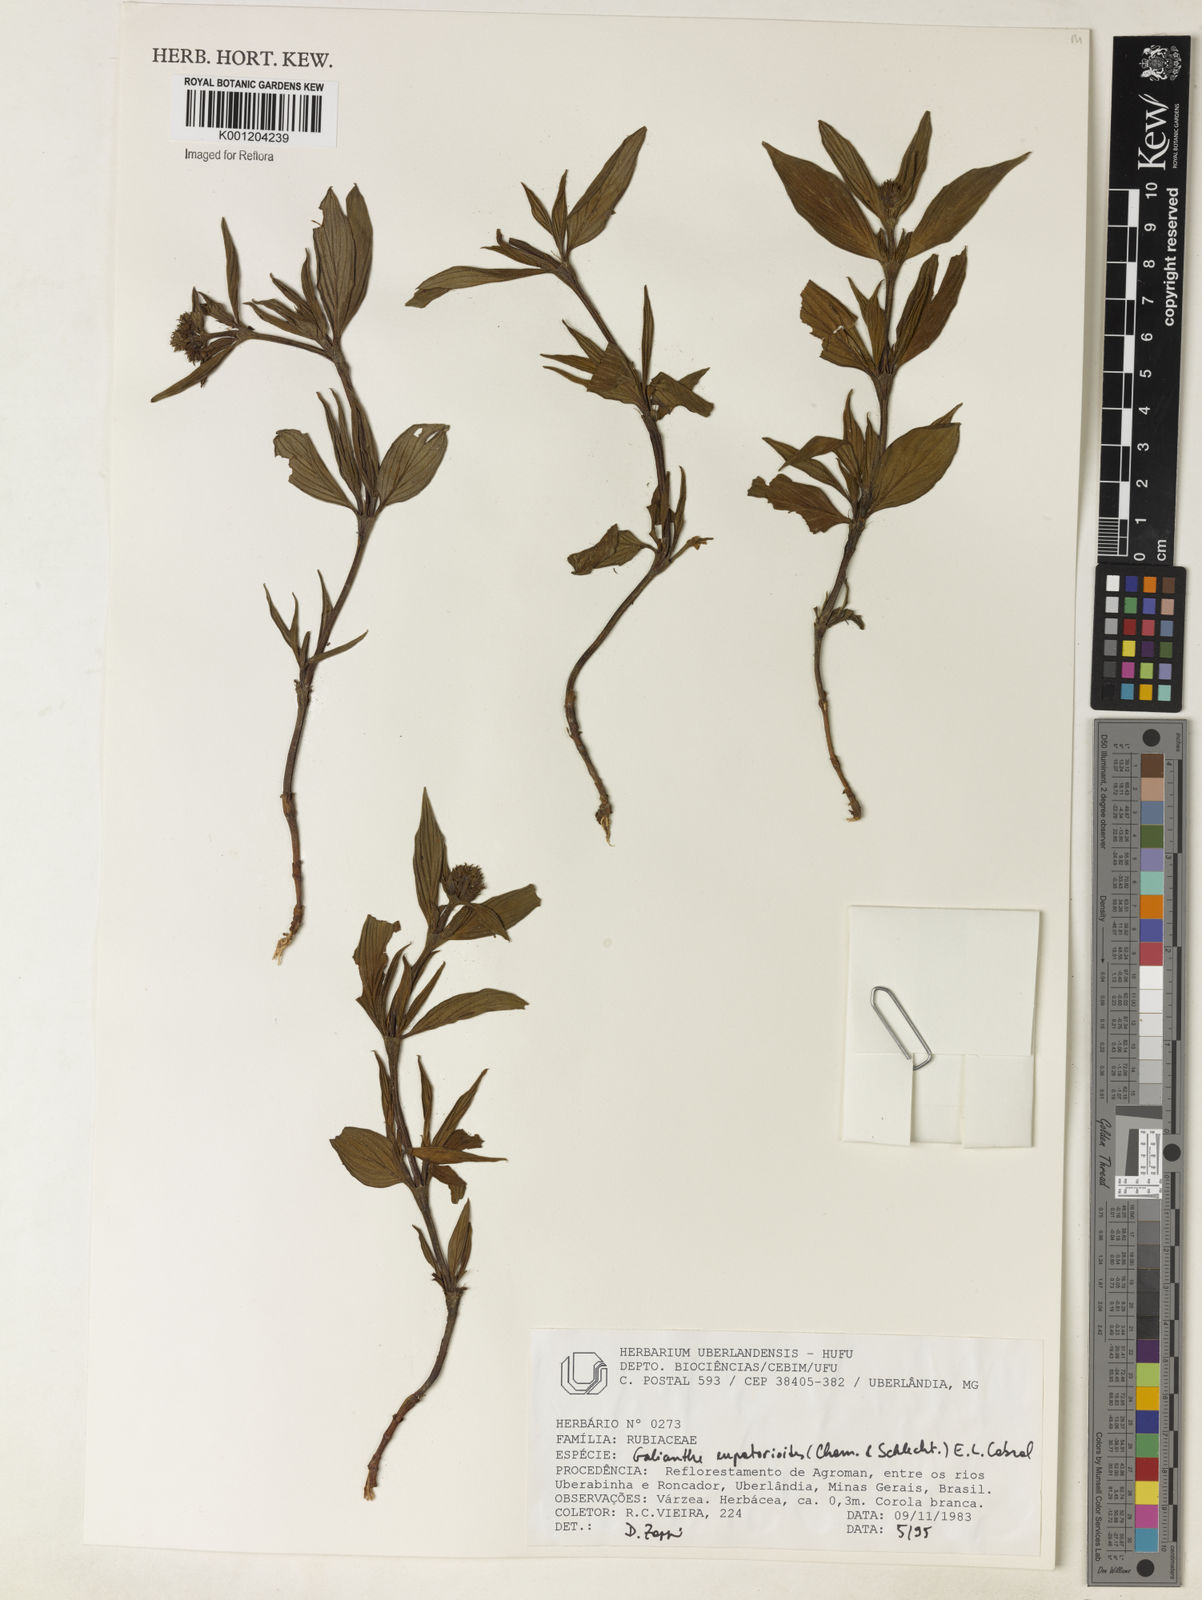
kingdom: Plantae
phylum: Tracheophyta
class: Magnoliopsida
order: Gentianales
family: Rubiaceae
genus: Galianthe
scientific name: Galianthe eupatorioides
